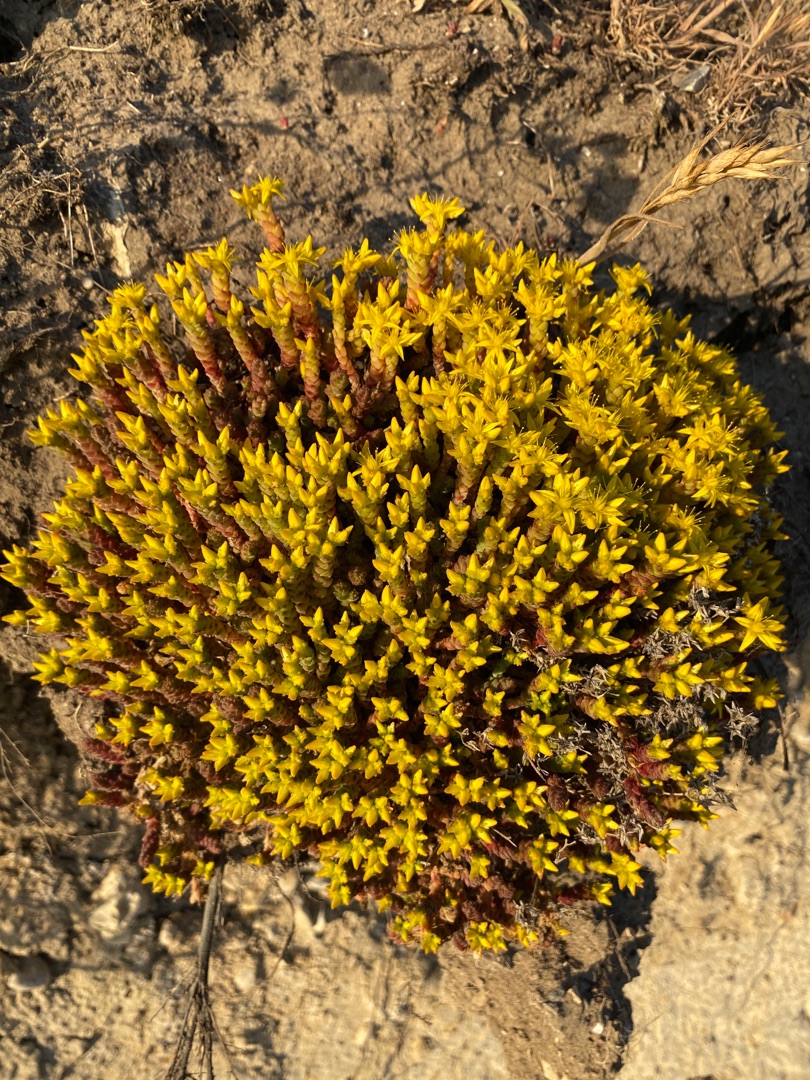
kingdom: Plantae
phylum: Tracheophyta
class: Magnoliopsida
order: Saxifragales
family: Crassulaceae
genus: Sedum
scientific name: Sedum acre
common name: Bidende stenurt
